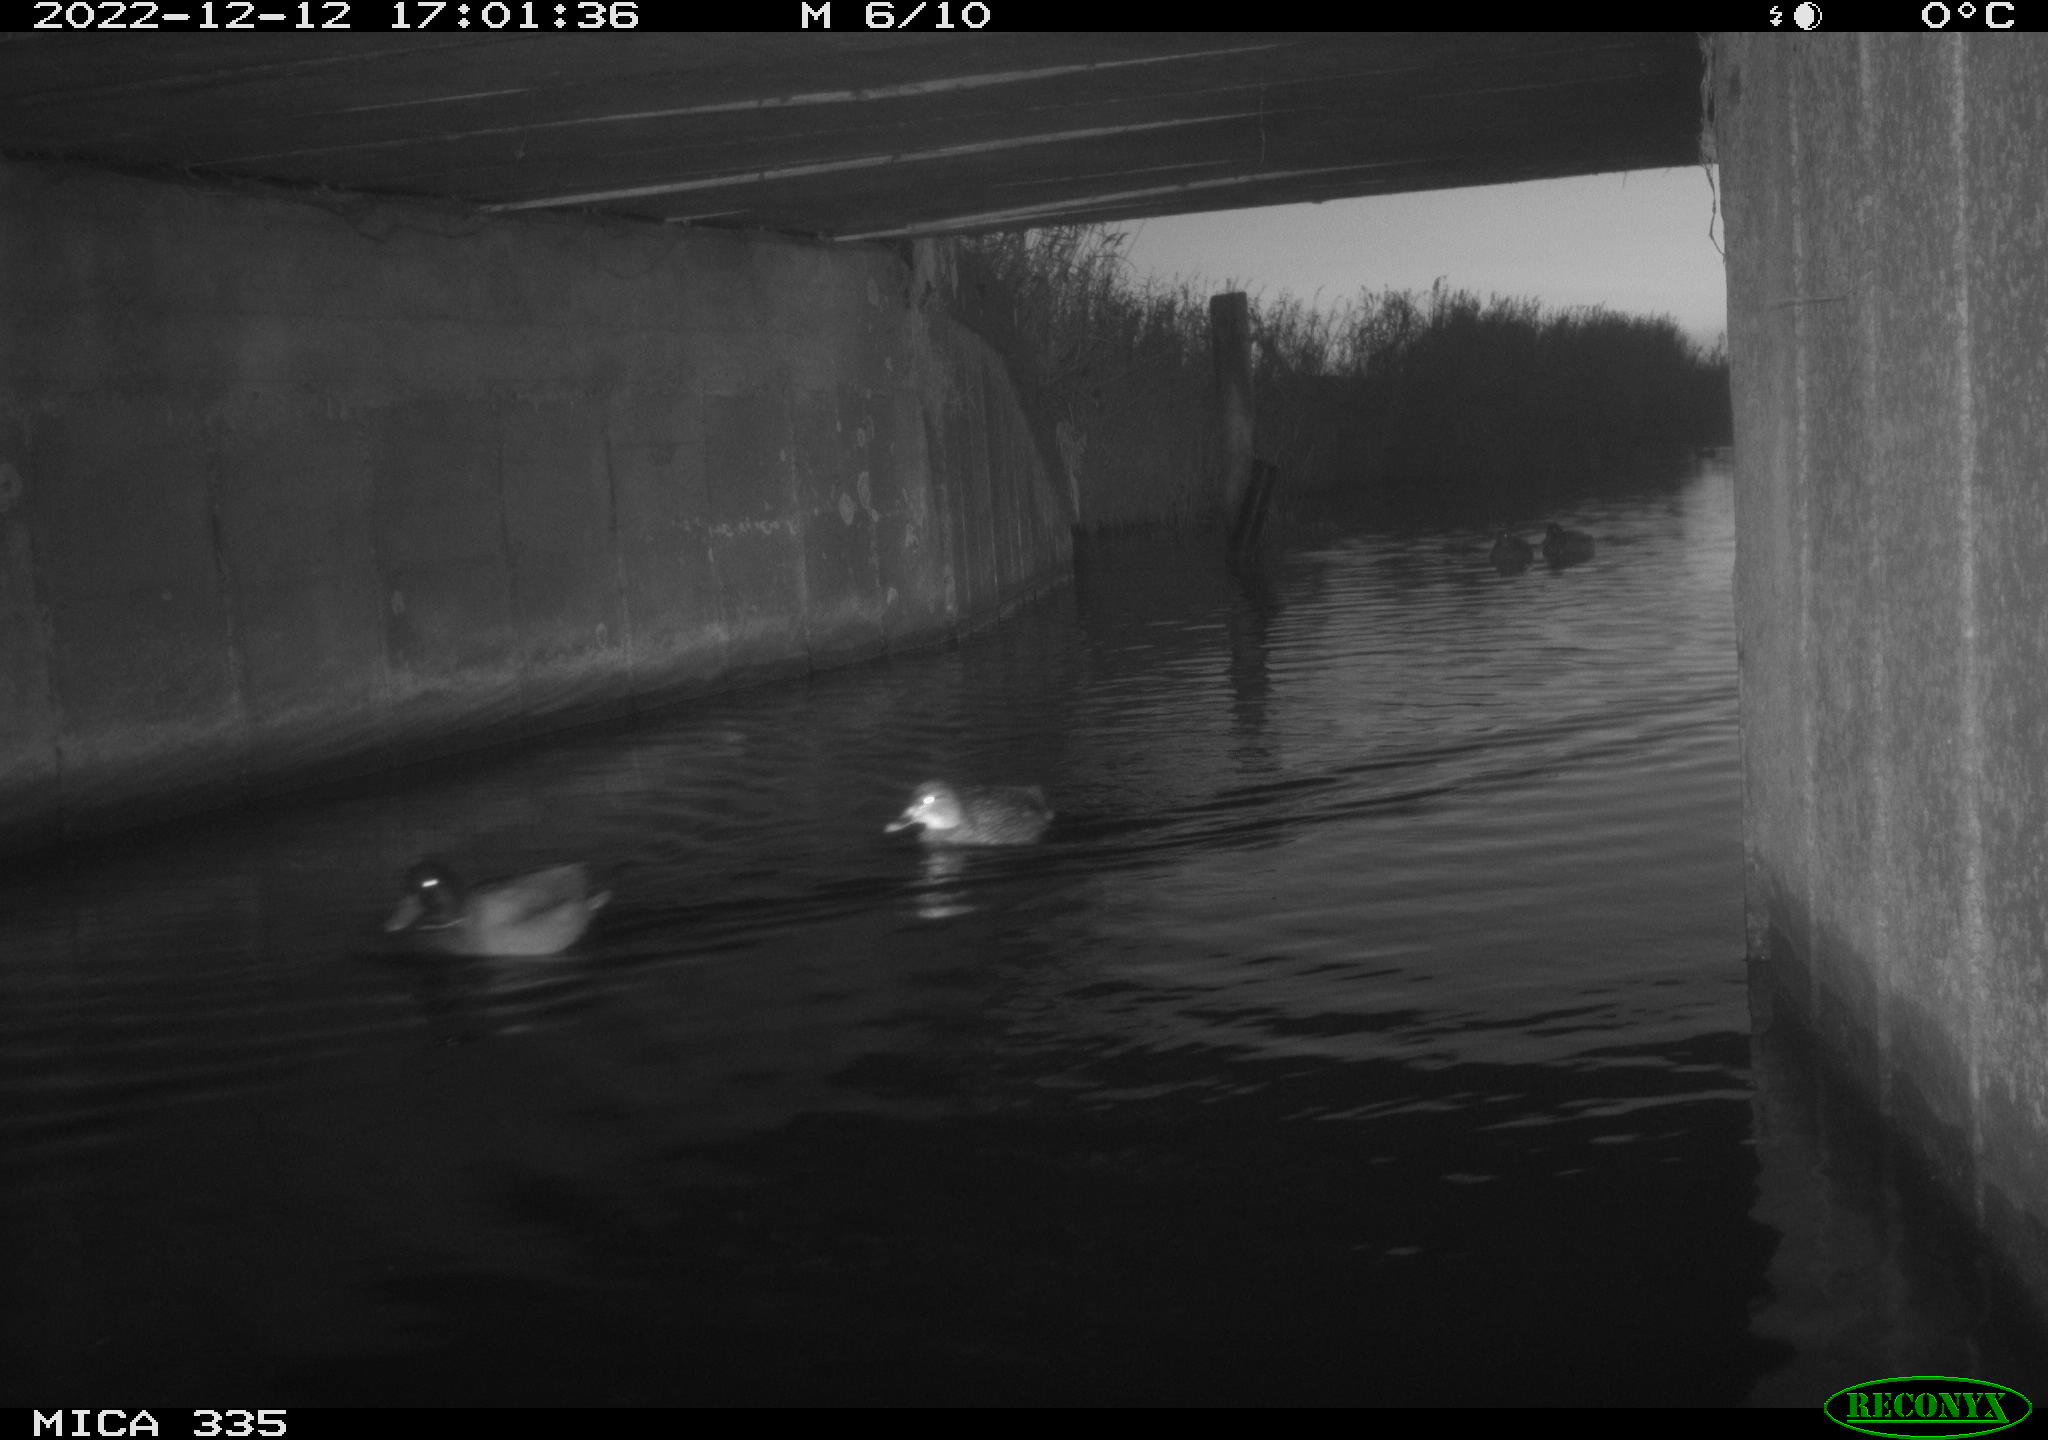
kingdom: Animalia
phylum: Chordata
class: Aves
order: Anseriformes
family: Anatidae
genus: Anas
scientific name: Anas
